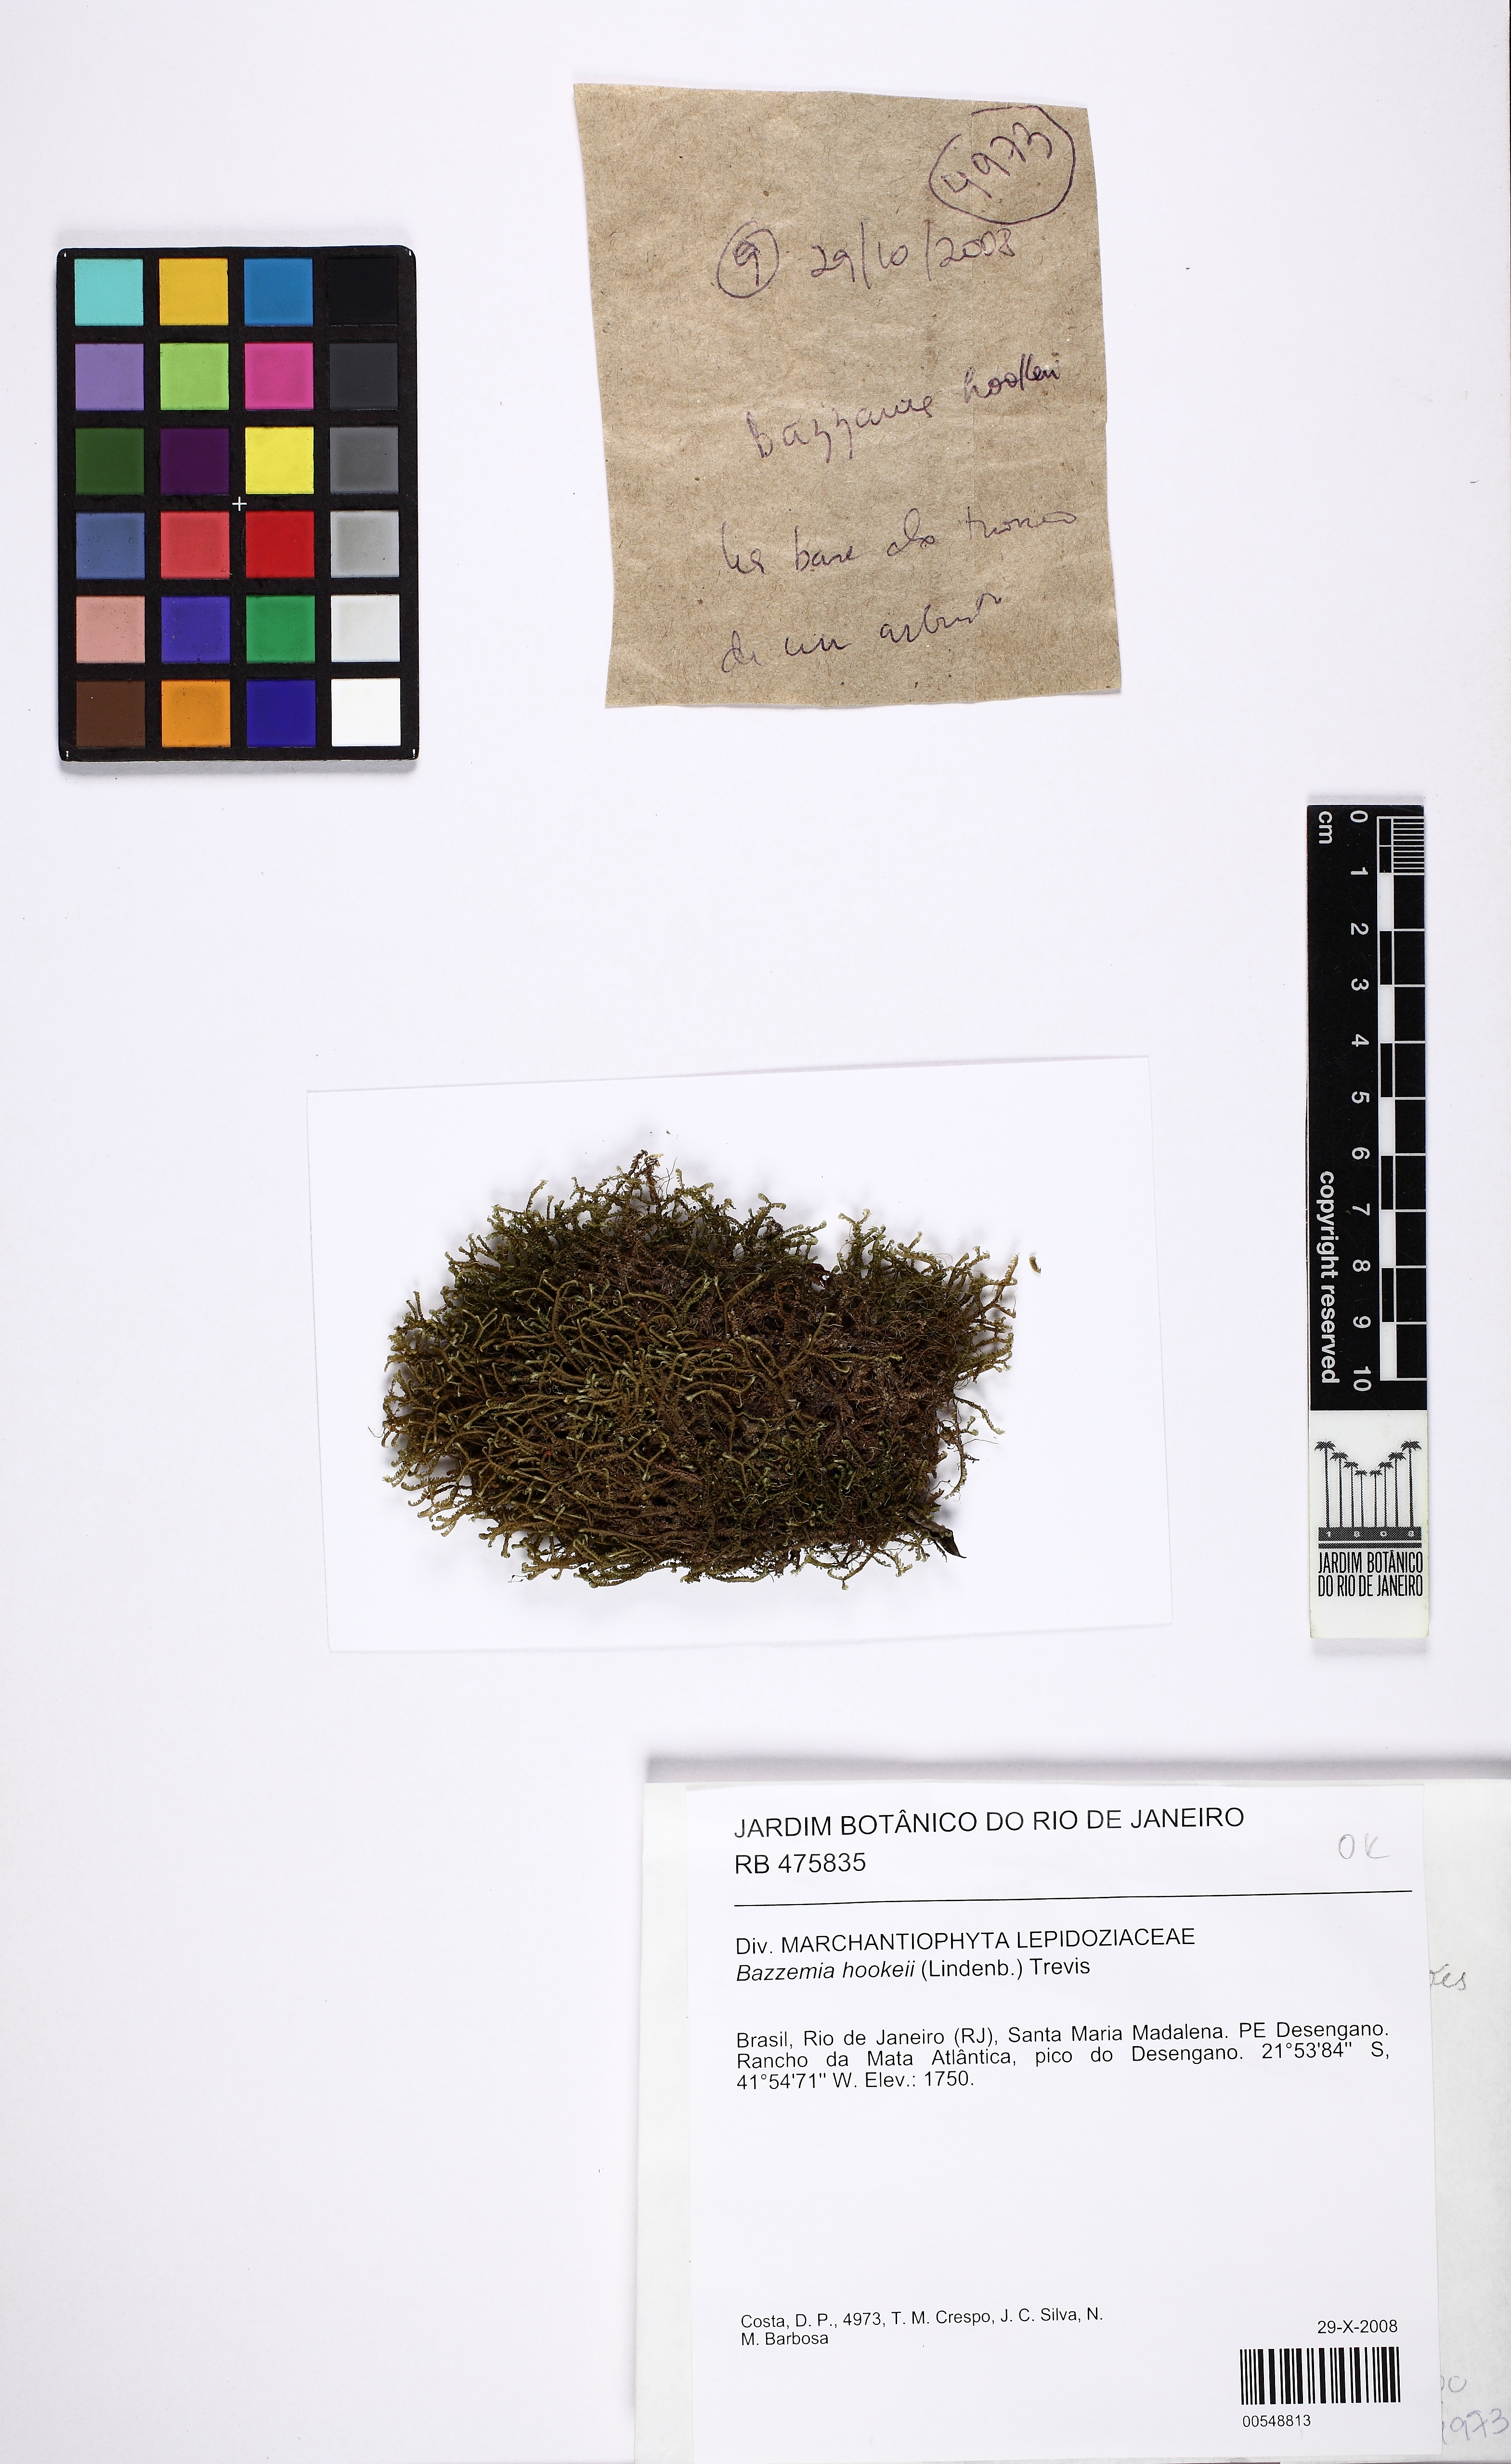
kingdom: Plantae
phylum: Marchantiophyta
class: Jungermanniopsida
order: Jungermanniales
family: Lepidoziaceae
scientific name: Lepidoziaceae
